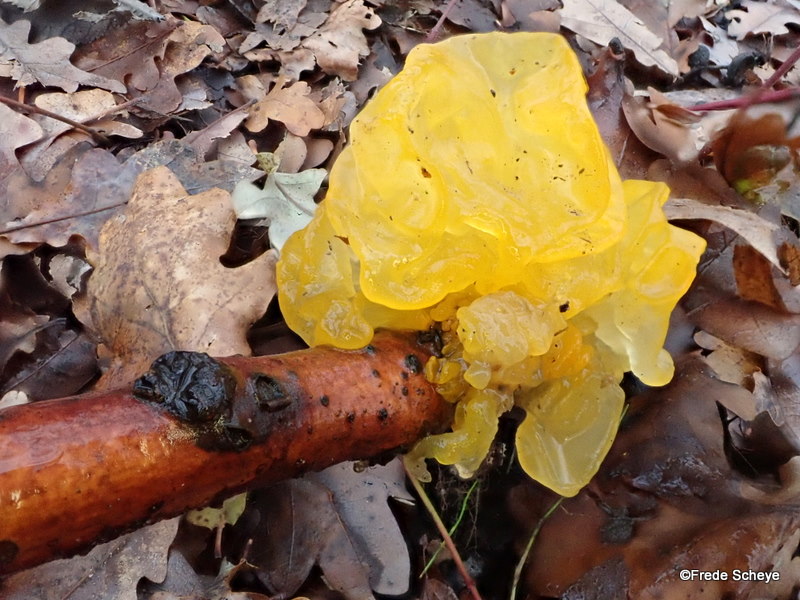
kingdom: Fungi
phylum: Basidiomycota
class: Tremellomycetes
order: Tremellales
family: Tremellaceae
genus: Tremella
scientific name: Tremella mesenterica
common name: gul bævresvamp
